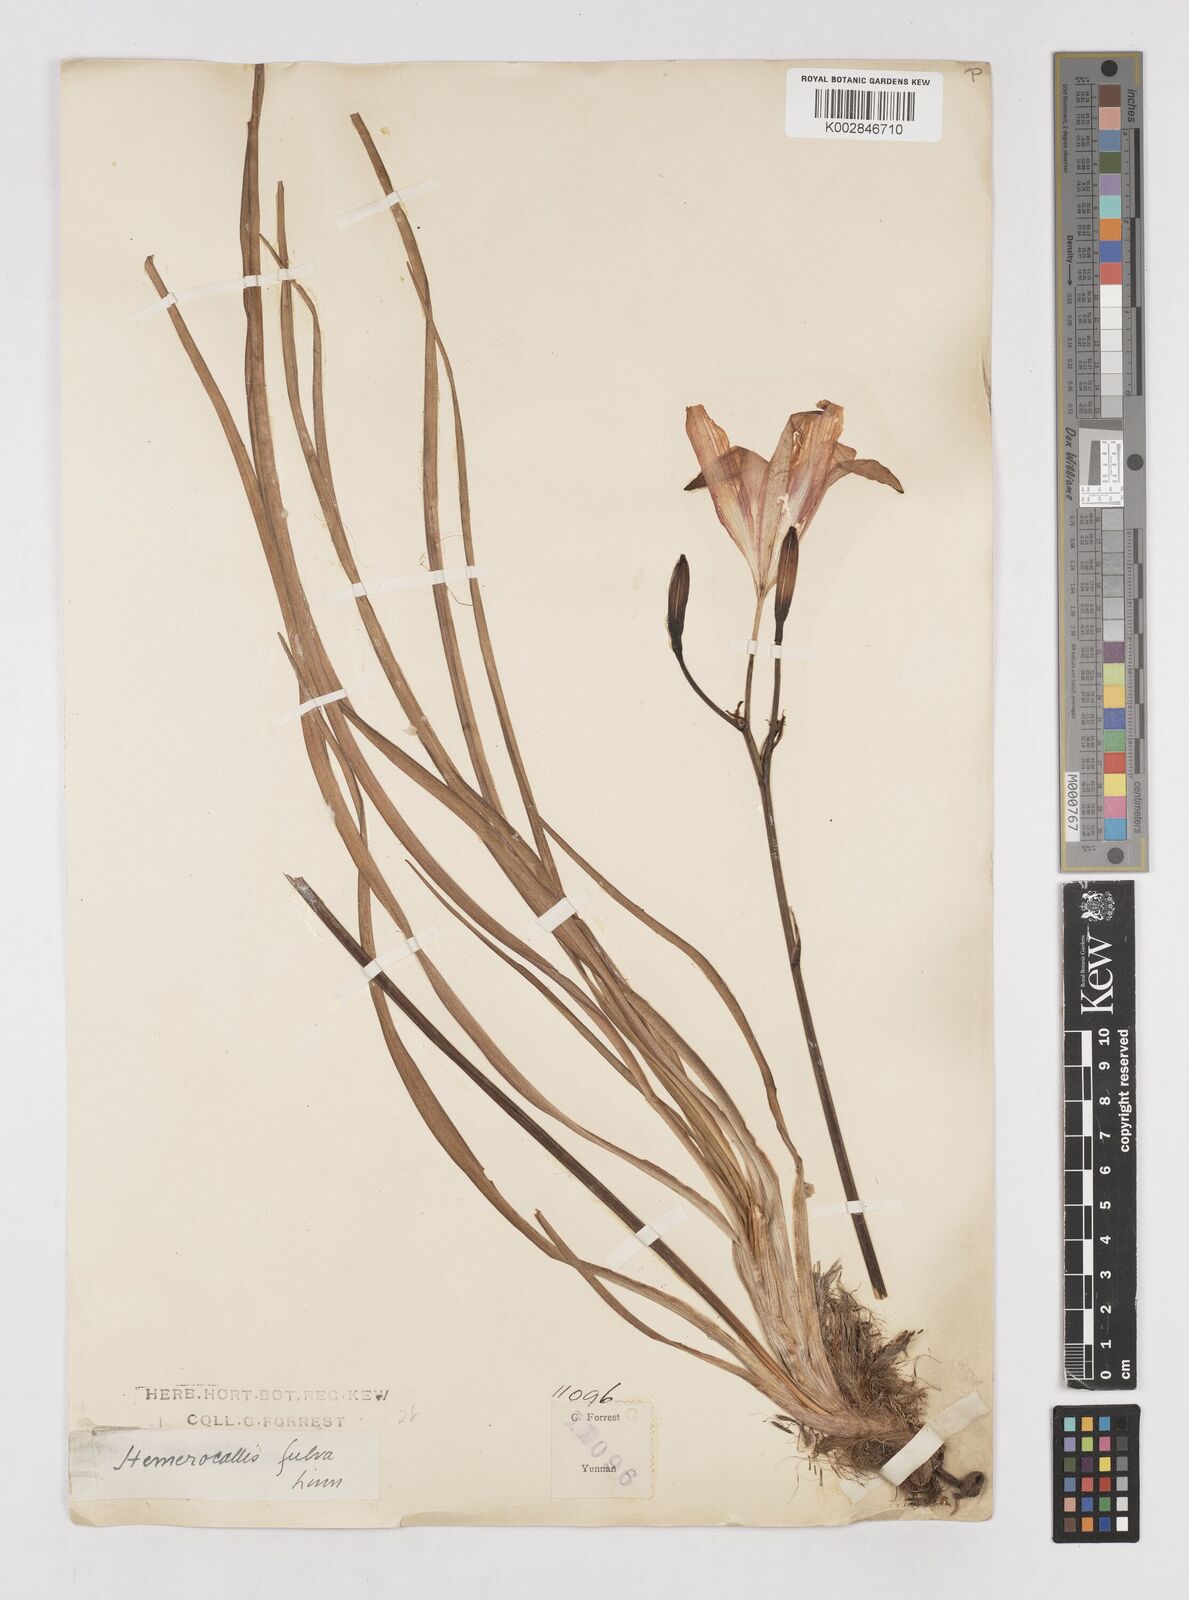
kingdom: Plantae
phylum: Tracheophyta
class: Liliopsida
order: Asparagales
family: Asphodelaceae
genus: Hemerocallis
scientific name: Hemerocallis
